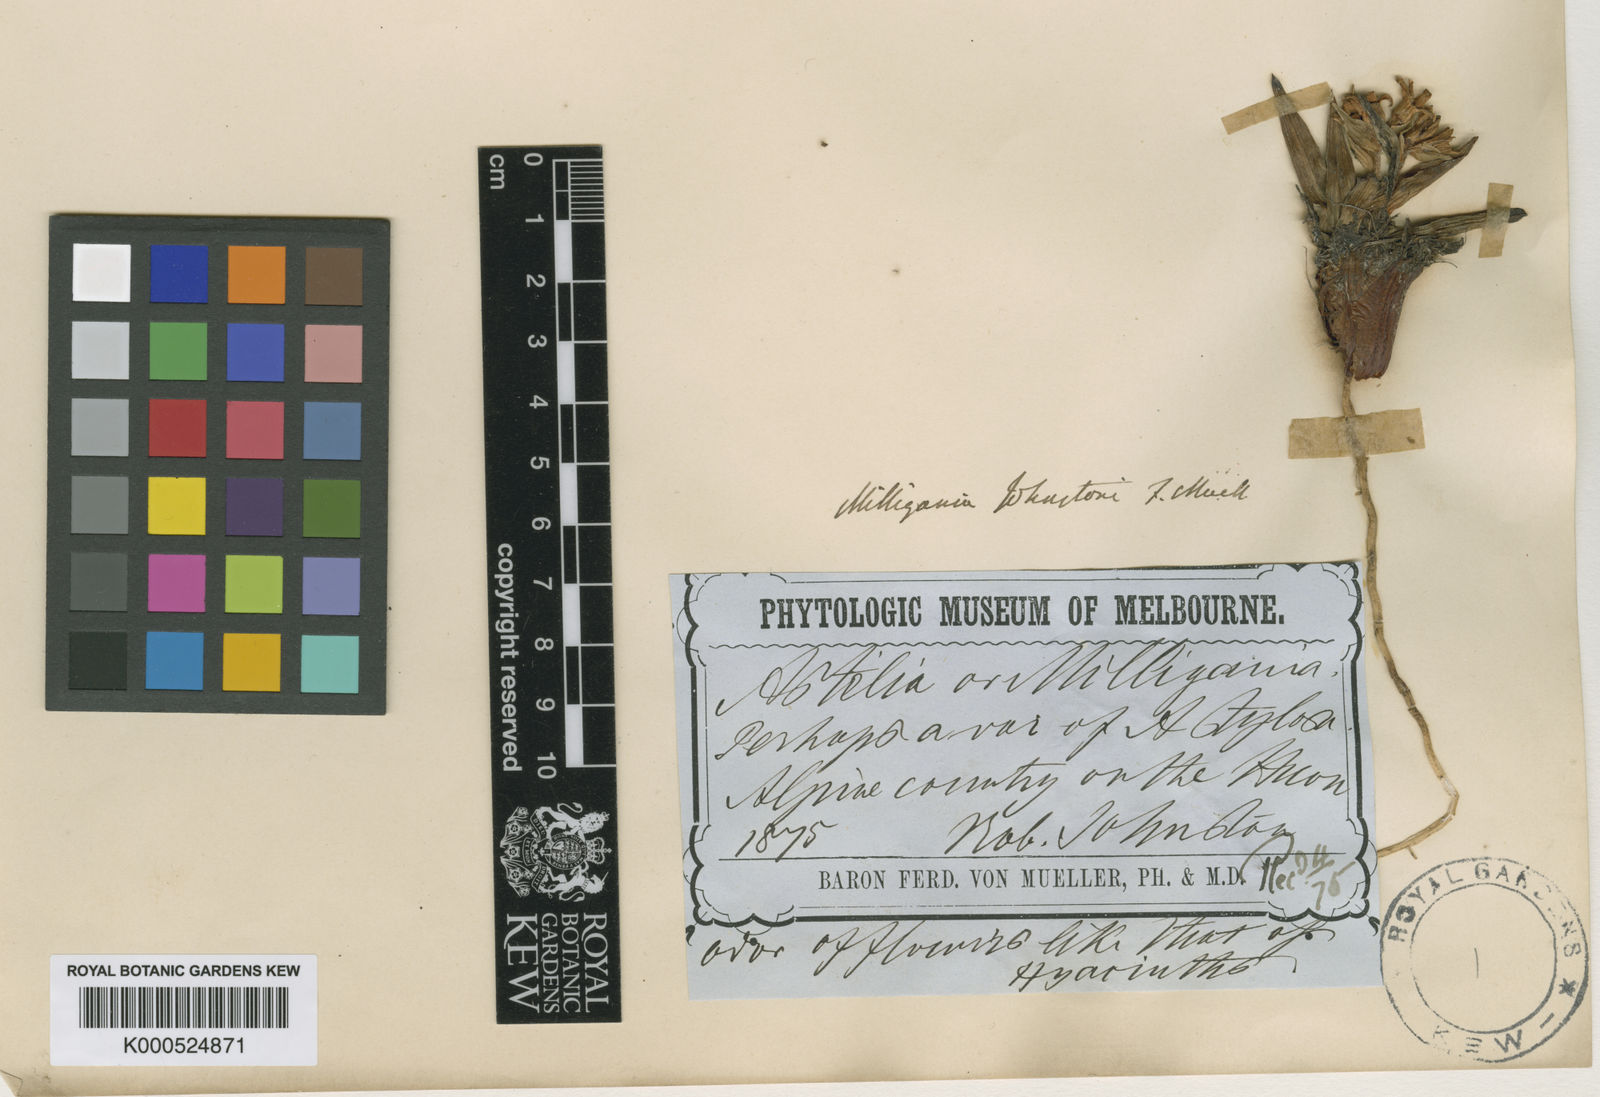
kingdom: Plantae
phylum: Tracheophyta
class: Liliopsida
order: Asparagales
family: Asteliaceae
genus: Milligania
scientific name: Milligania johnstonii
